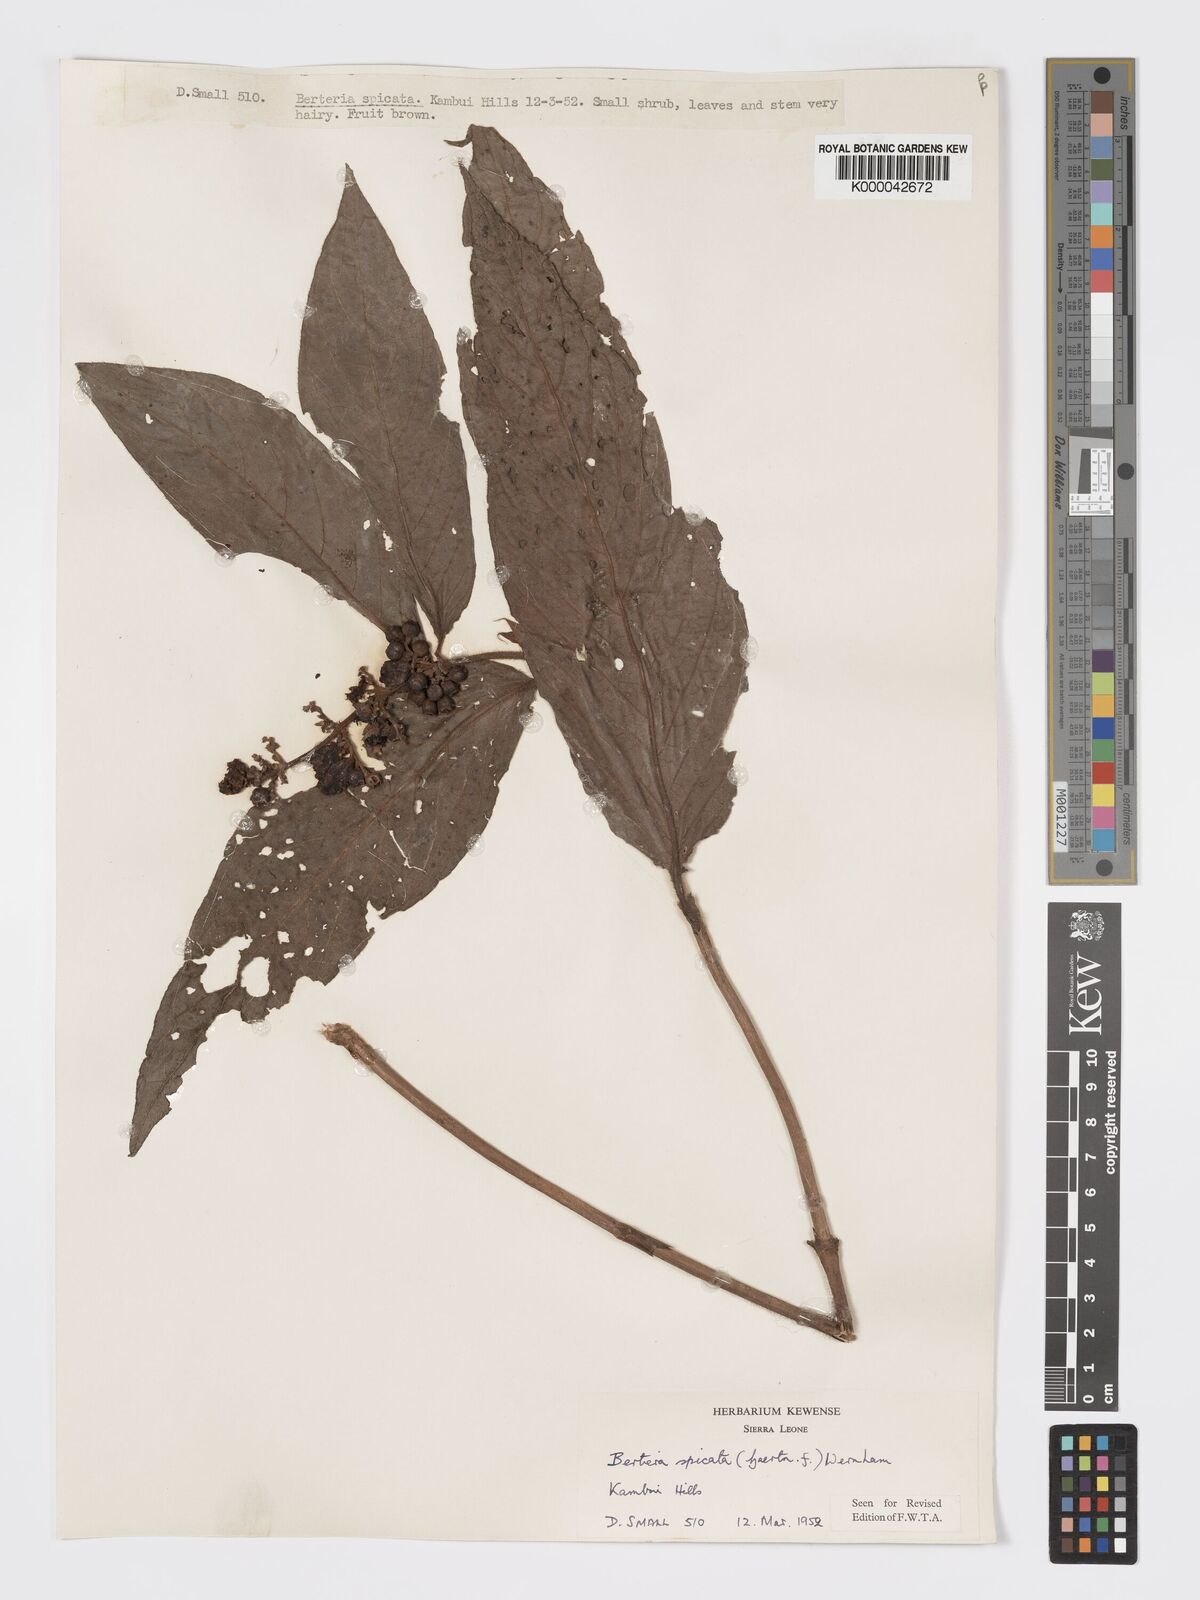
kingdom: Plantae
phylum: Tracheophyta
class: Magnoliopsida
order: Gentianales
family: Rubiaceae
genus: Bertiera
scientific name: Bertiera
